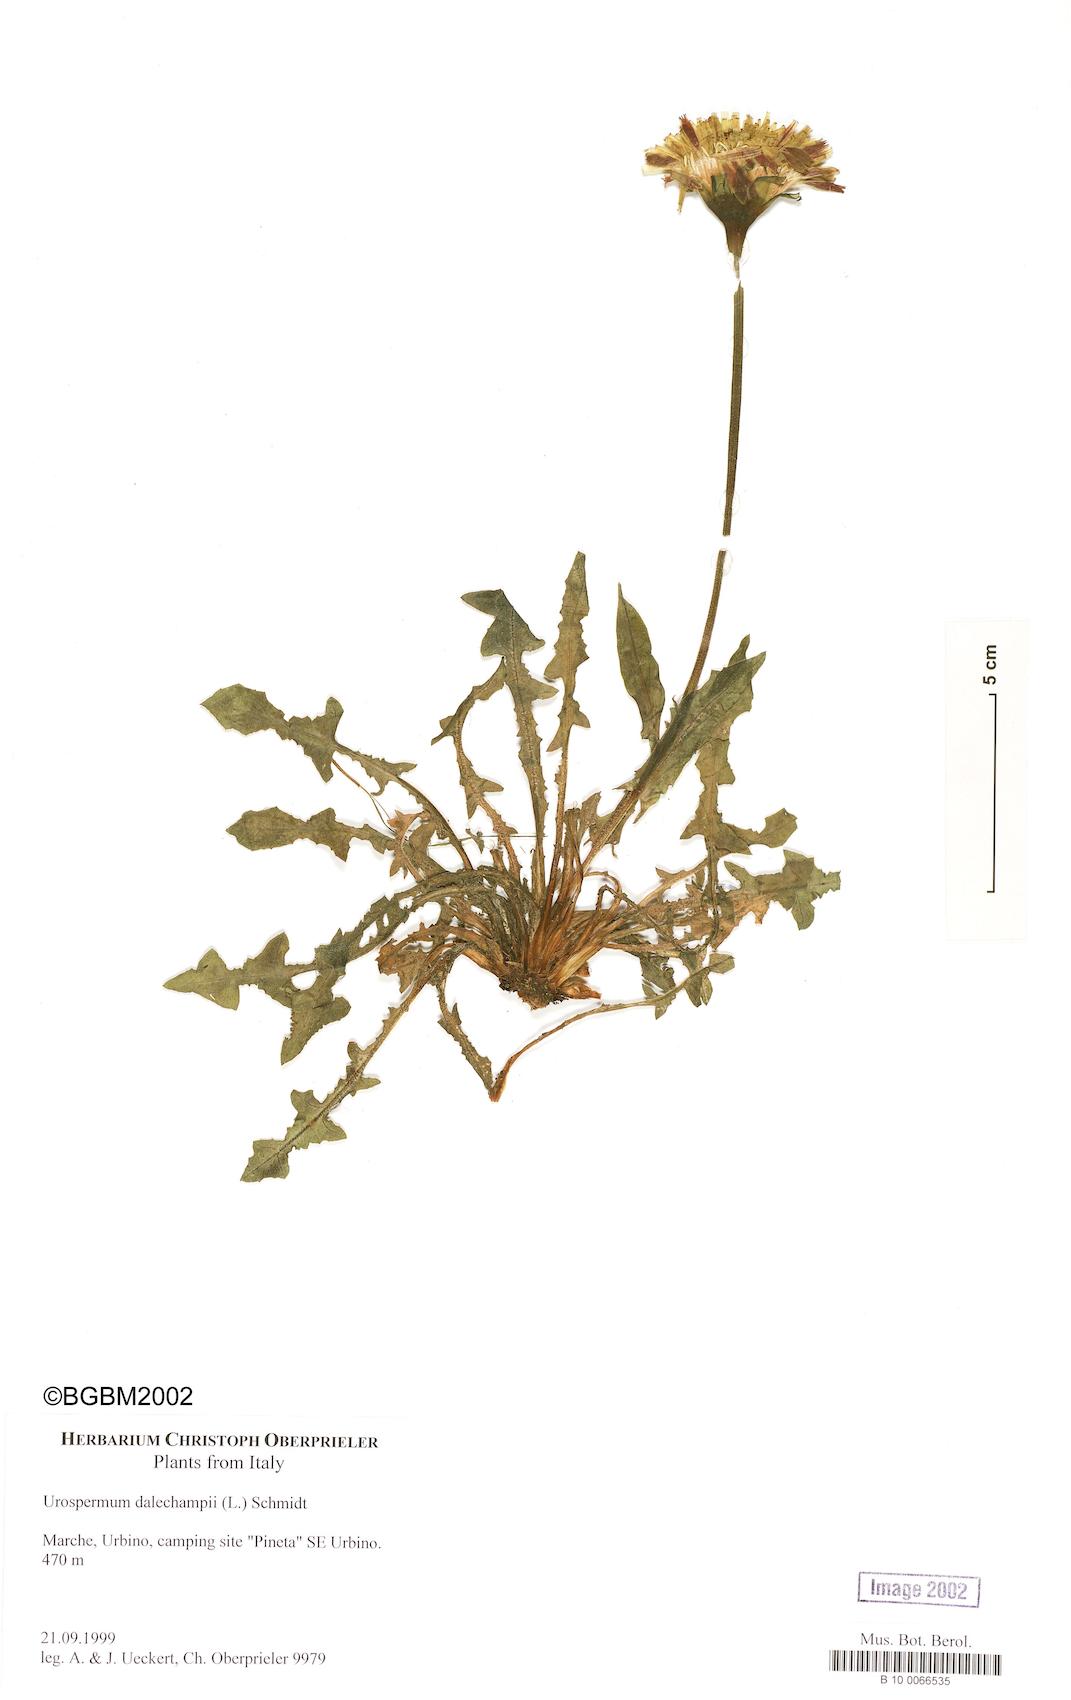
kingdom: Plantae
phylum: Tracheophyta
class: Magnoliopsida
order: Asterales
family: Asteraceae
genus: Urospermum
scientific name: Urospermum dalechampii
